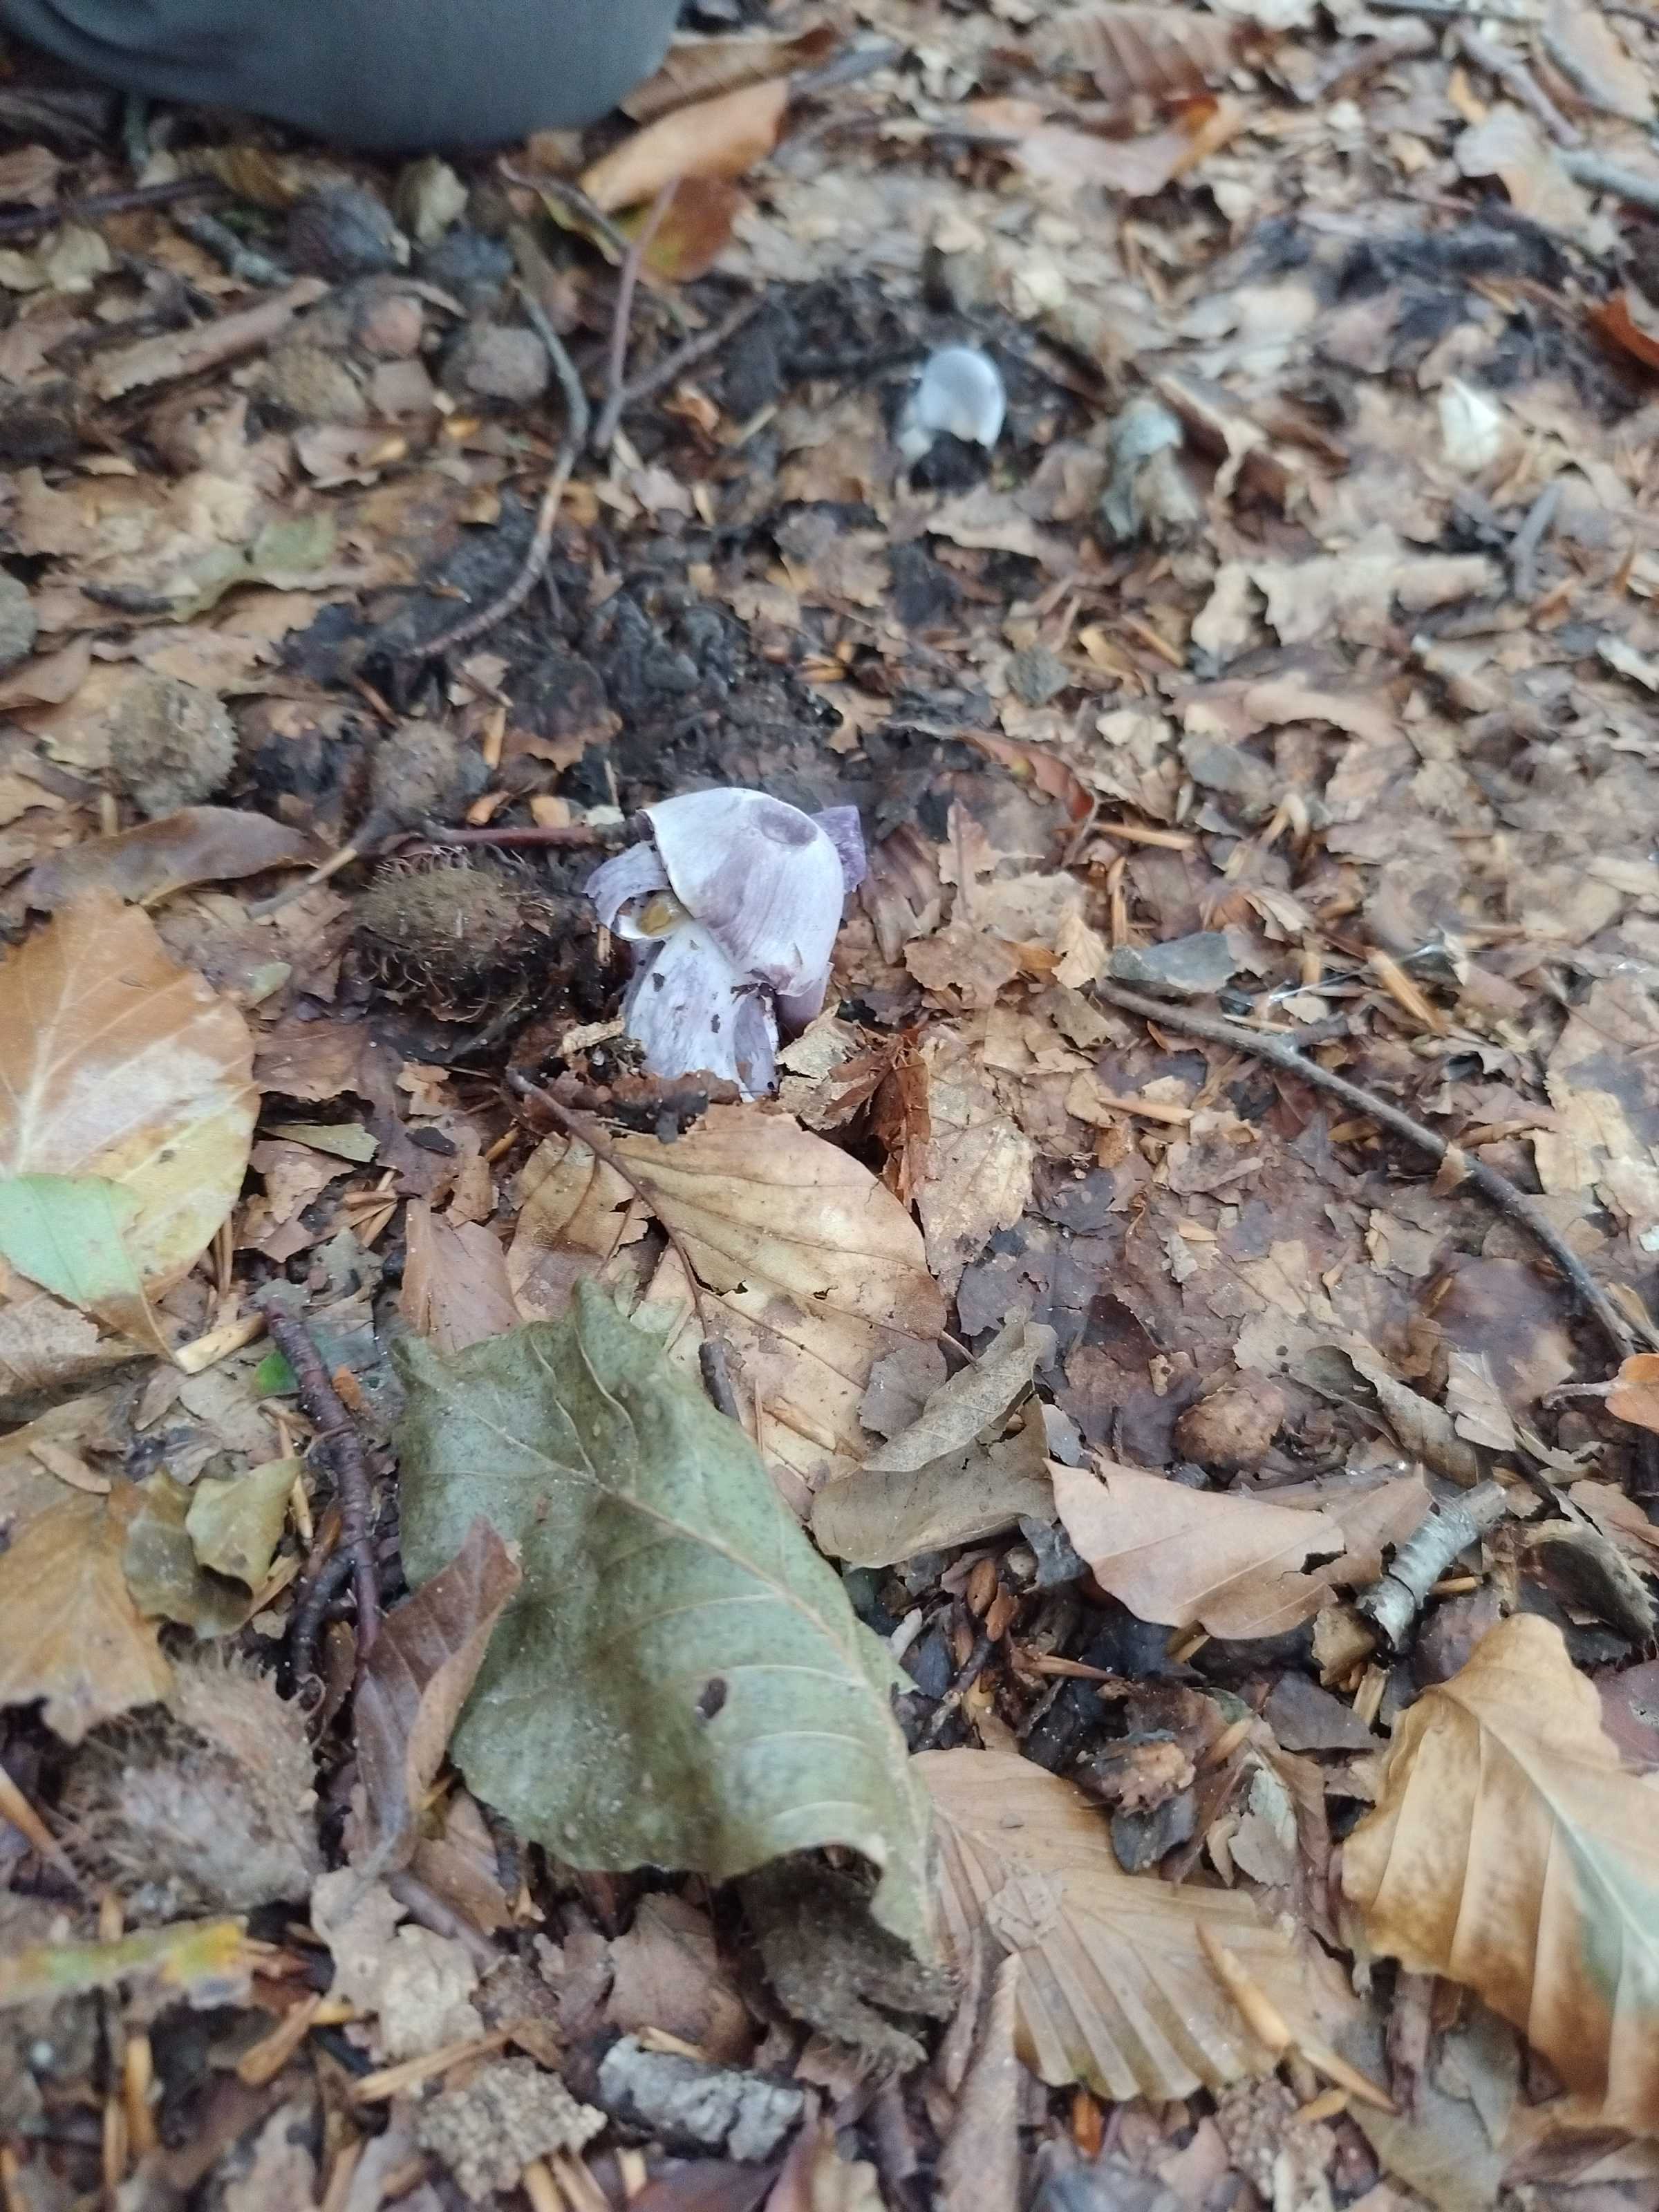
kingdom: Fungi
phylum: Basidiomycota
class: Agaricomycetes
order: Agaricales
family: Cortinariaceae
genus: Cortinarius
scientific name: Cortinarius alboviolaceus
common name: lysviolet slørhat
